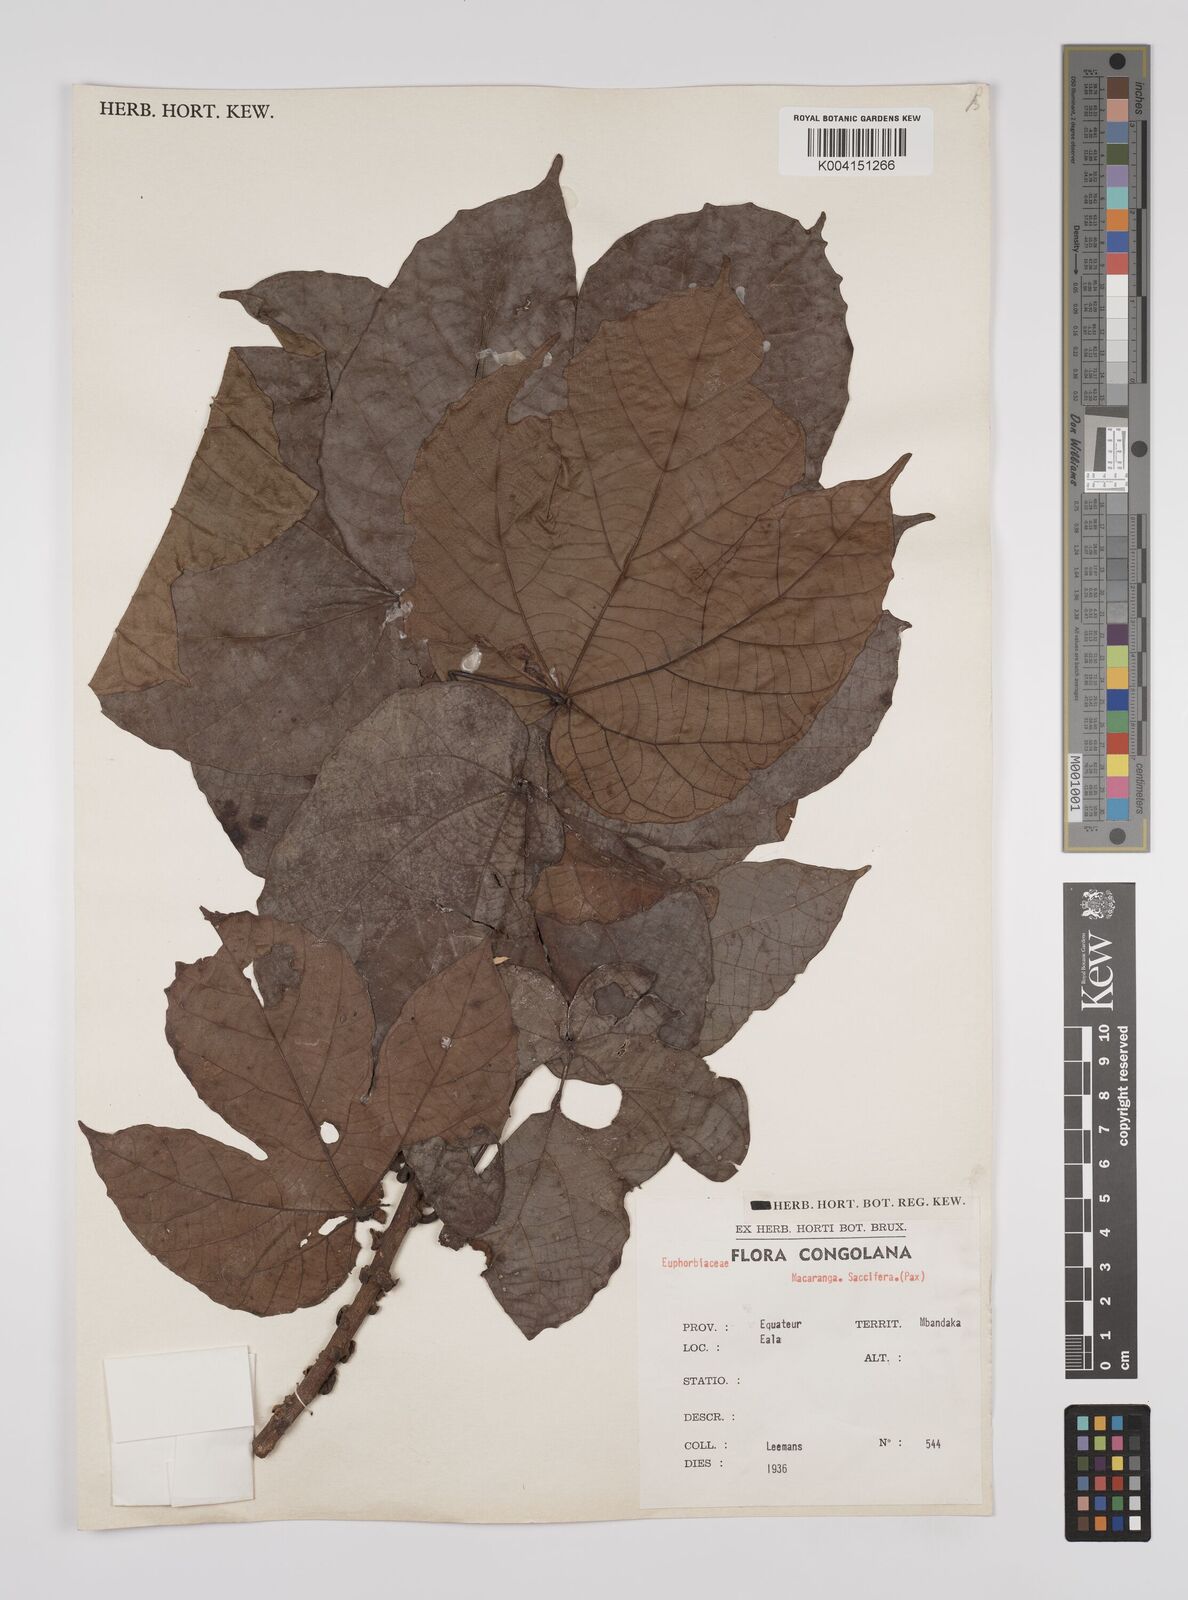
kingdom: Plantae
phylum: Tracheophyta
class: Magnoliopsida
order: Malpighiales
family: Euphorbiaceae
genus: Macaranga
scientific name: Macaranga saccifera
